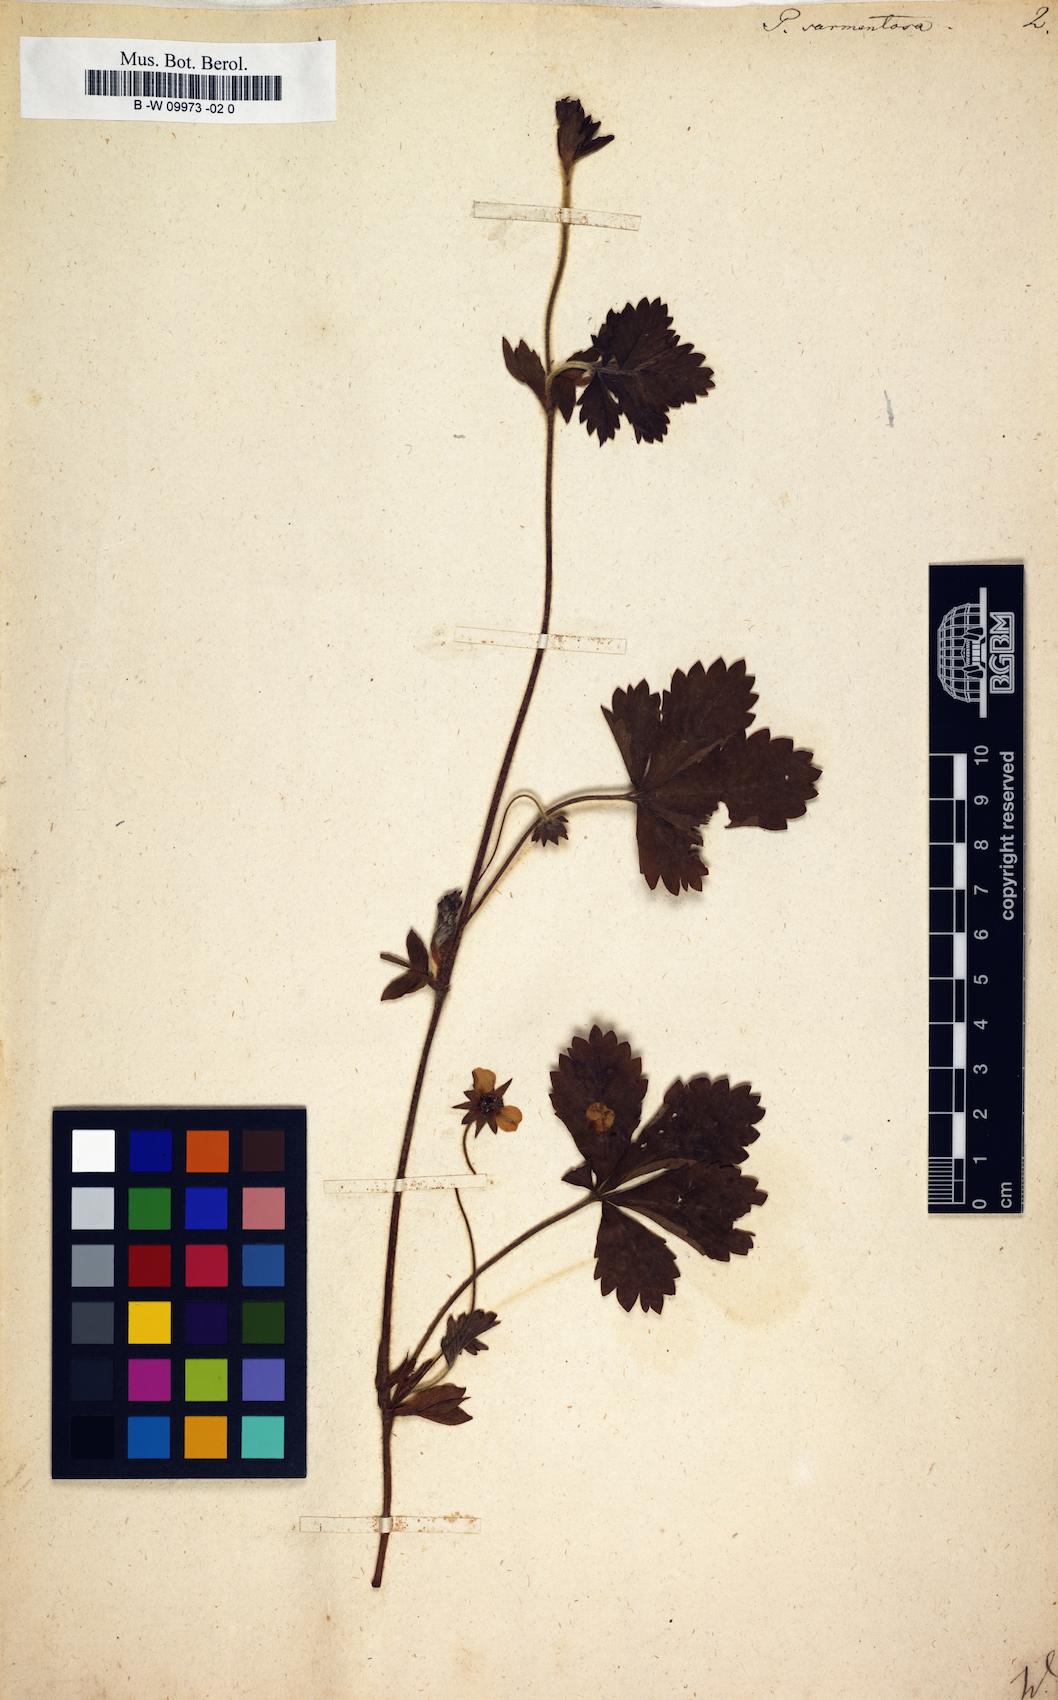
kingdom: Plantae
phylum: Tracheophyta
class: Magnoliopsida
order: Rosales
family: Rosaceae
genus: Potentilla
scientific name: Potentilla sarmentosa
